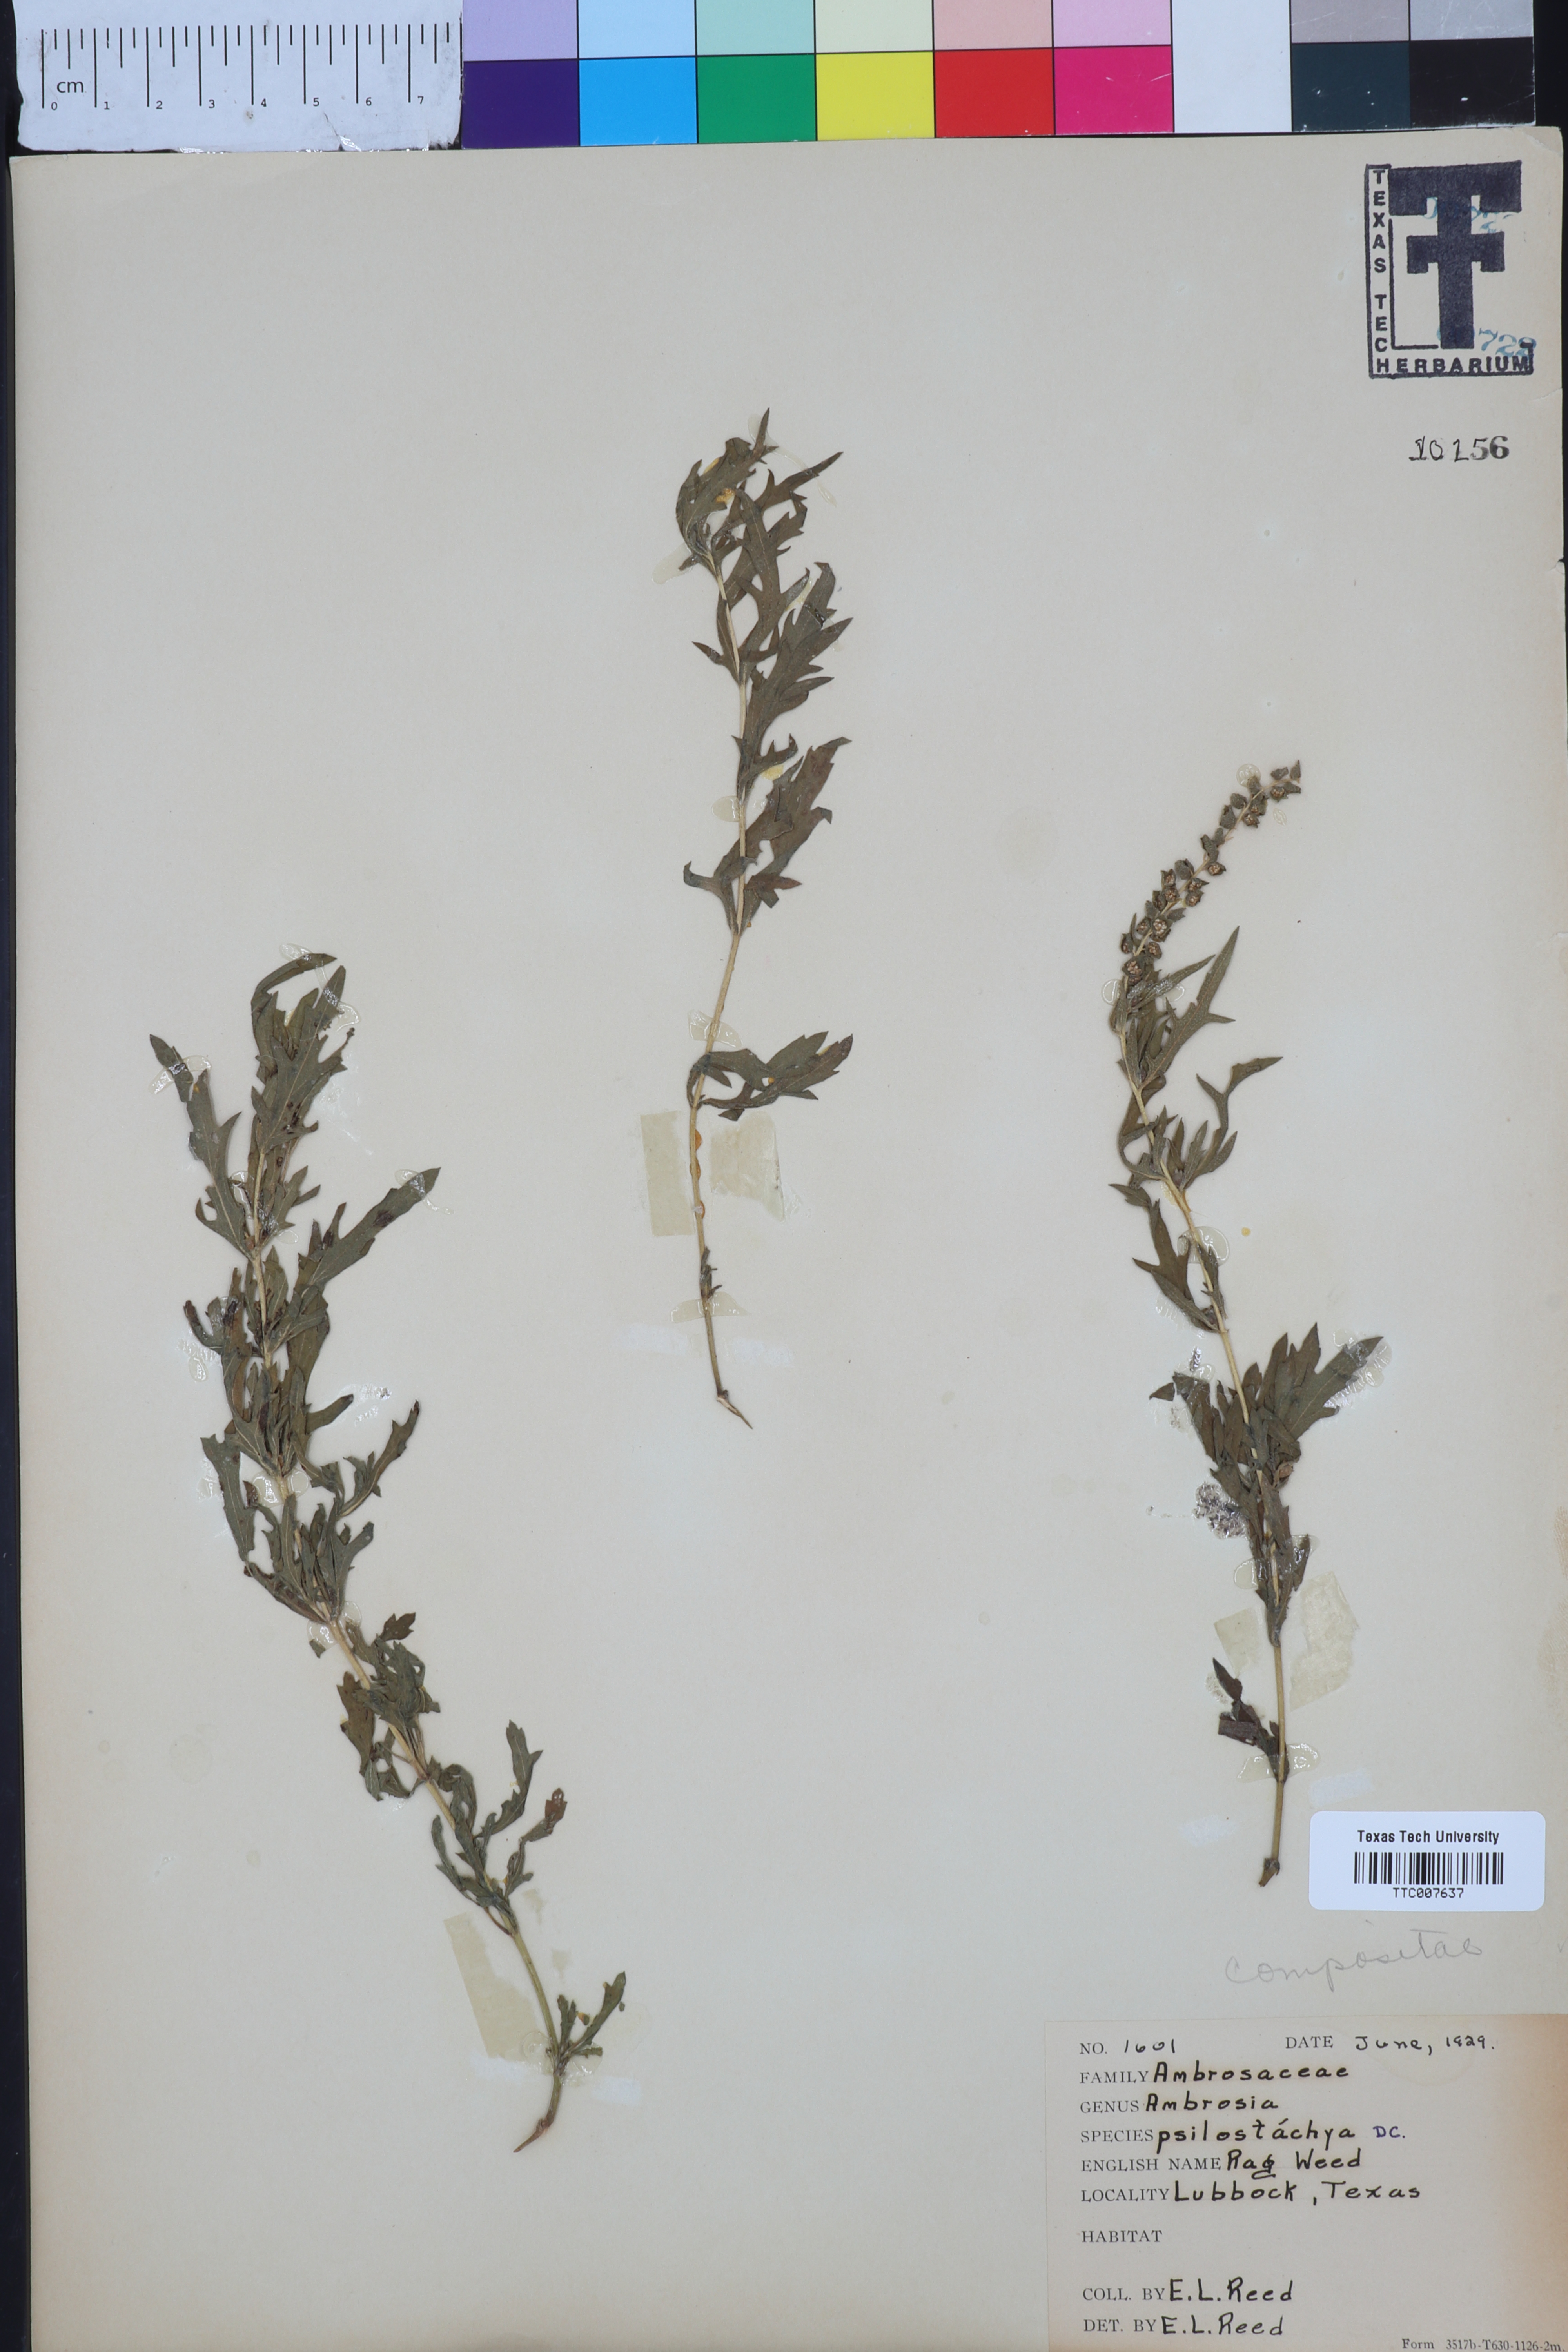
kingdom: Plantae
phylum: Tracheophyta
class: Magnoliopsida
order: Asterales
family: Asteraceae
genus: Ambrosia
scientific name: Ambrosia psilostachya
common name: Perennial ragweed
